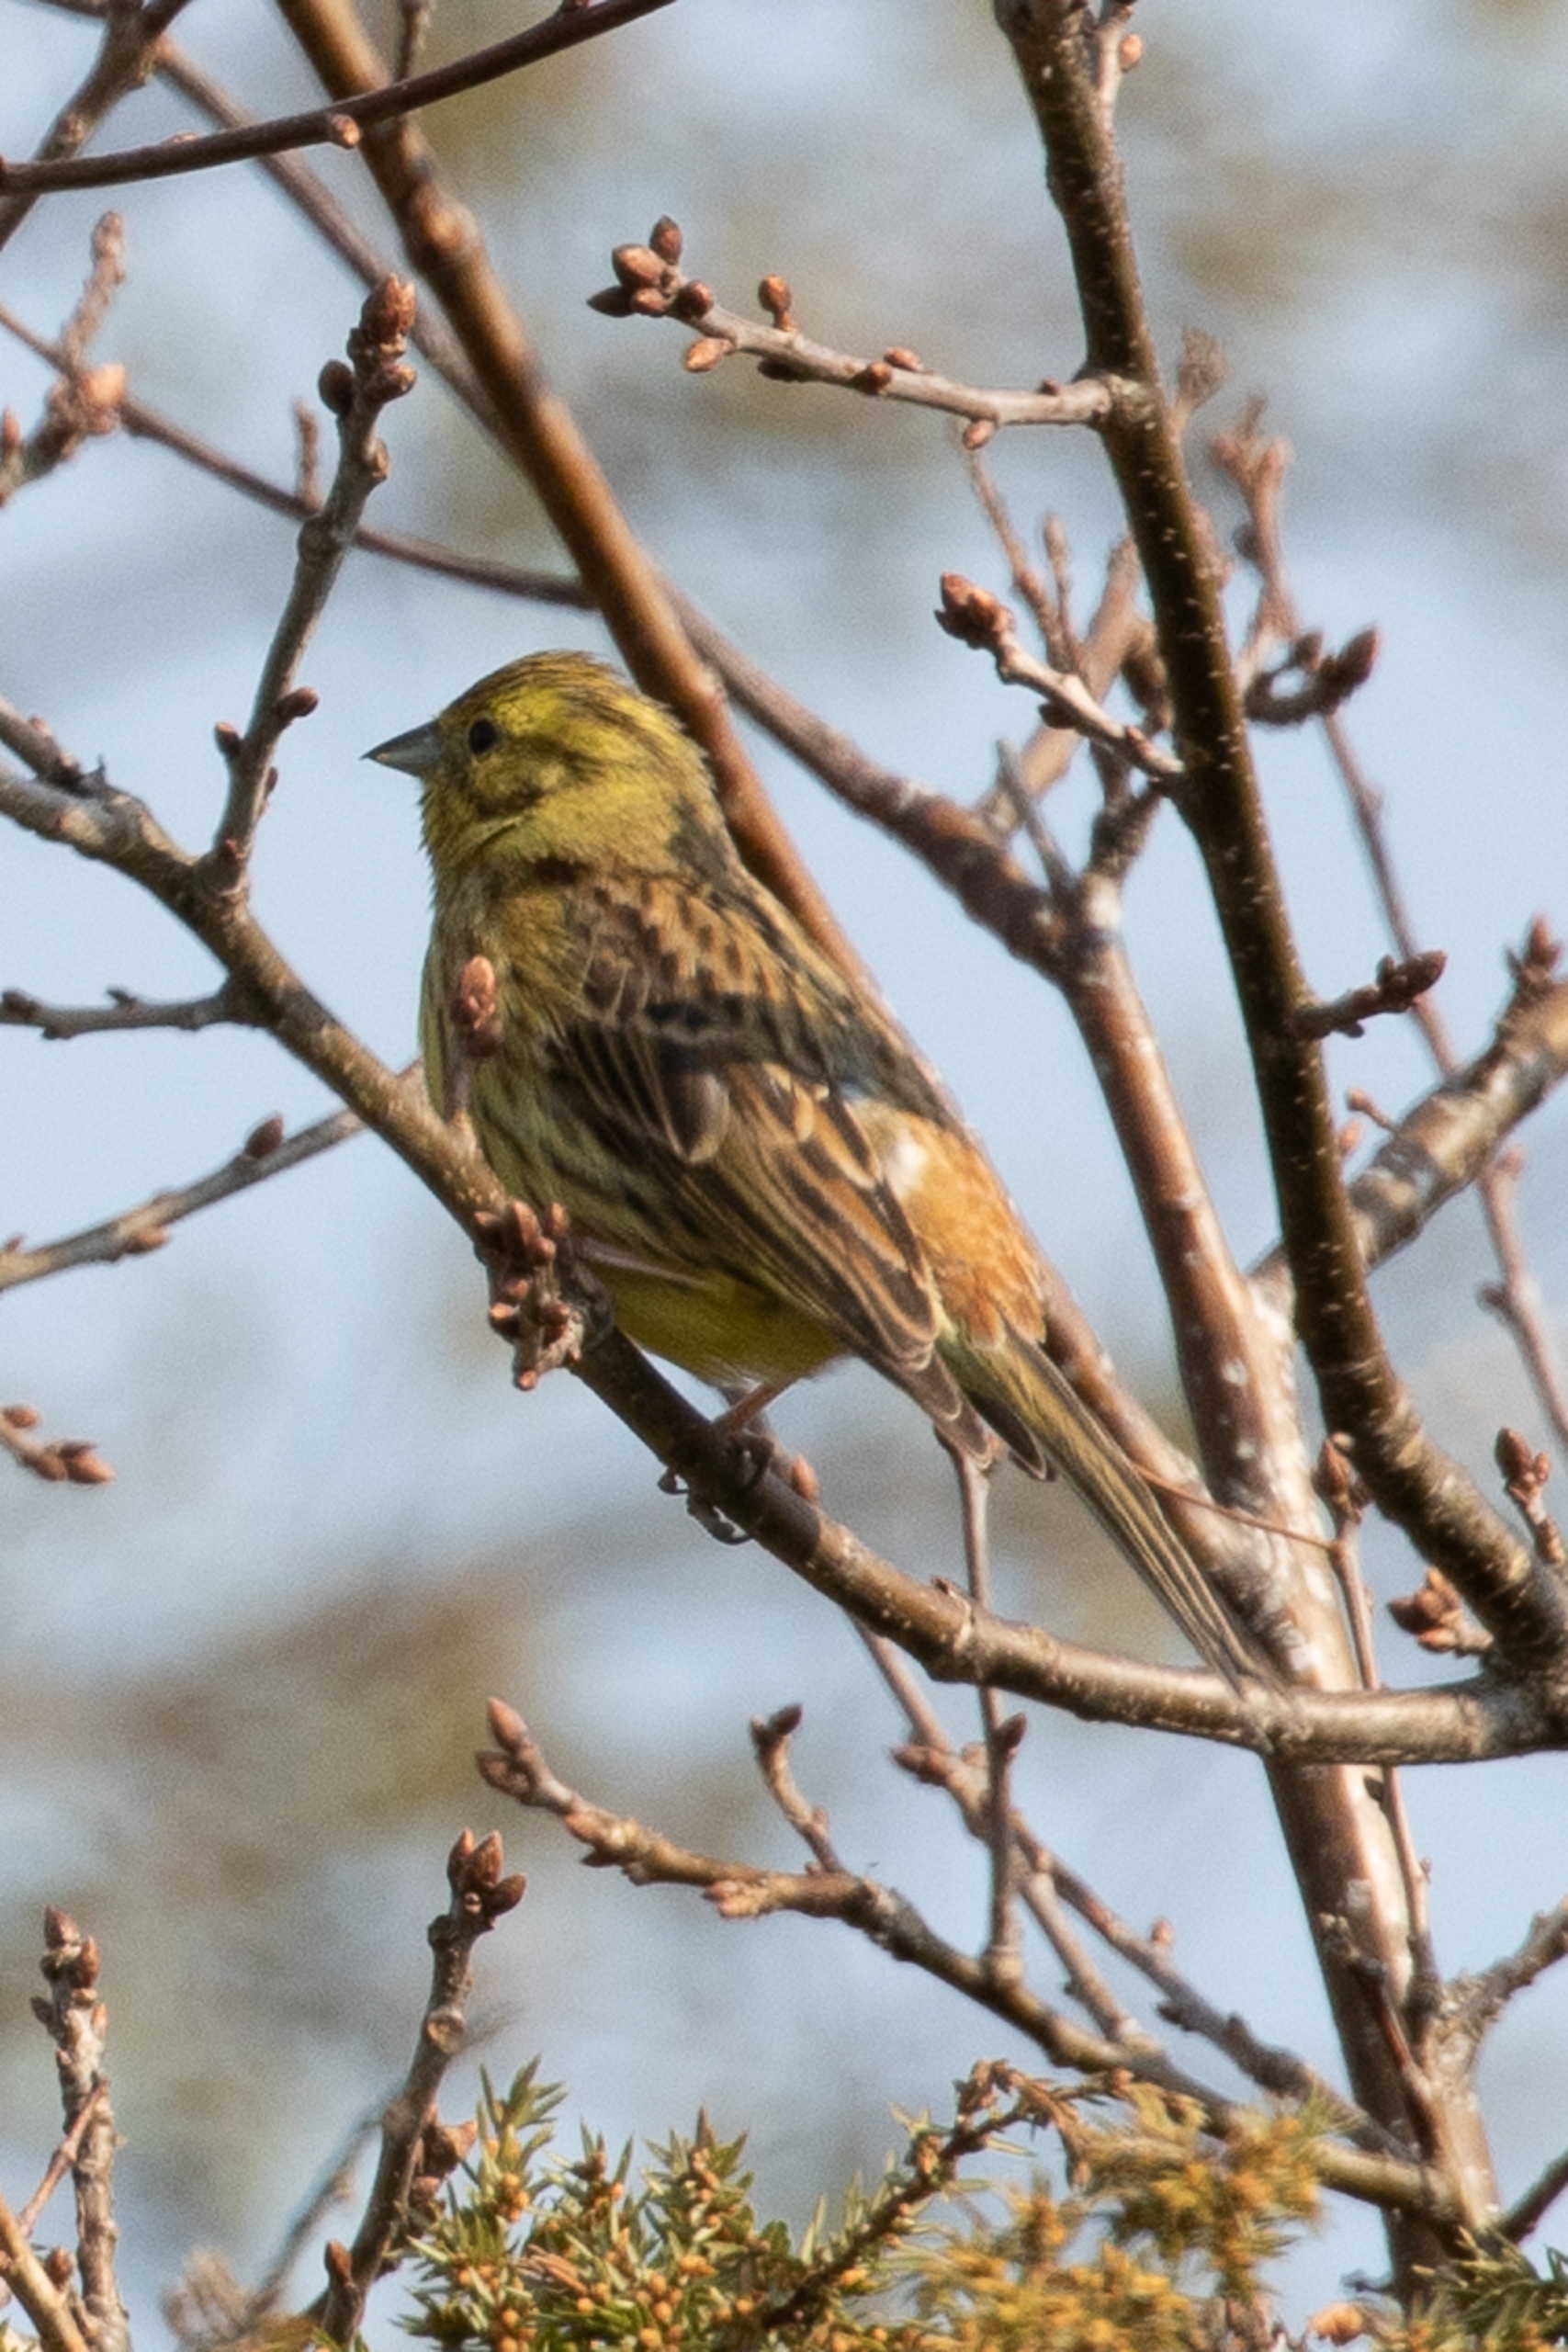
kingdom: Animalia
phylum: Chordata
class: Aves
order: Passeriformes
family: Emberizidae
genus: Emberiza
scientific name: Emberiza citrinella
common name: Gulspurv
